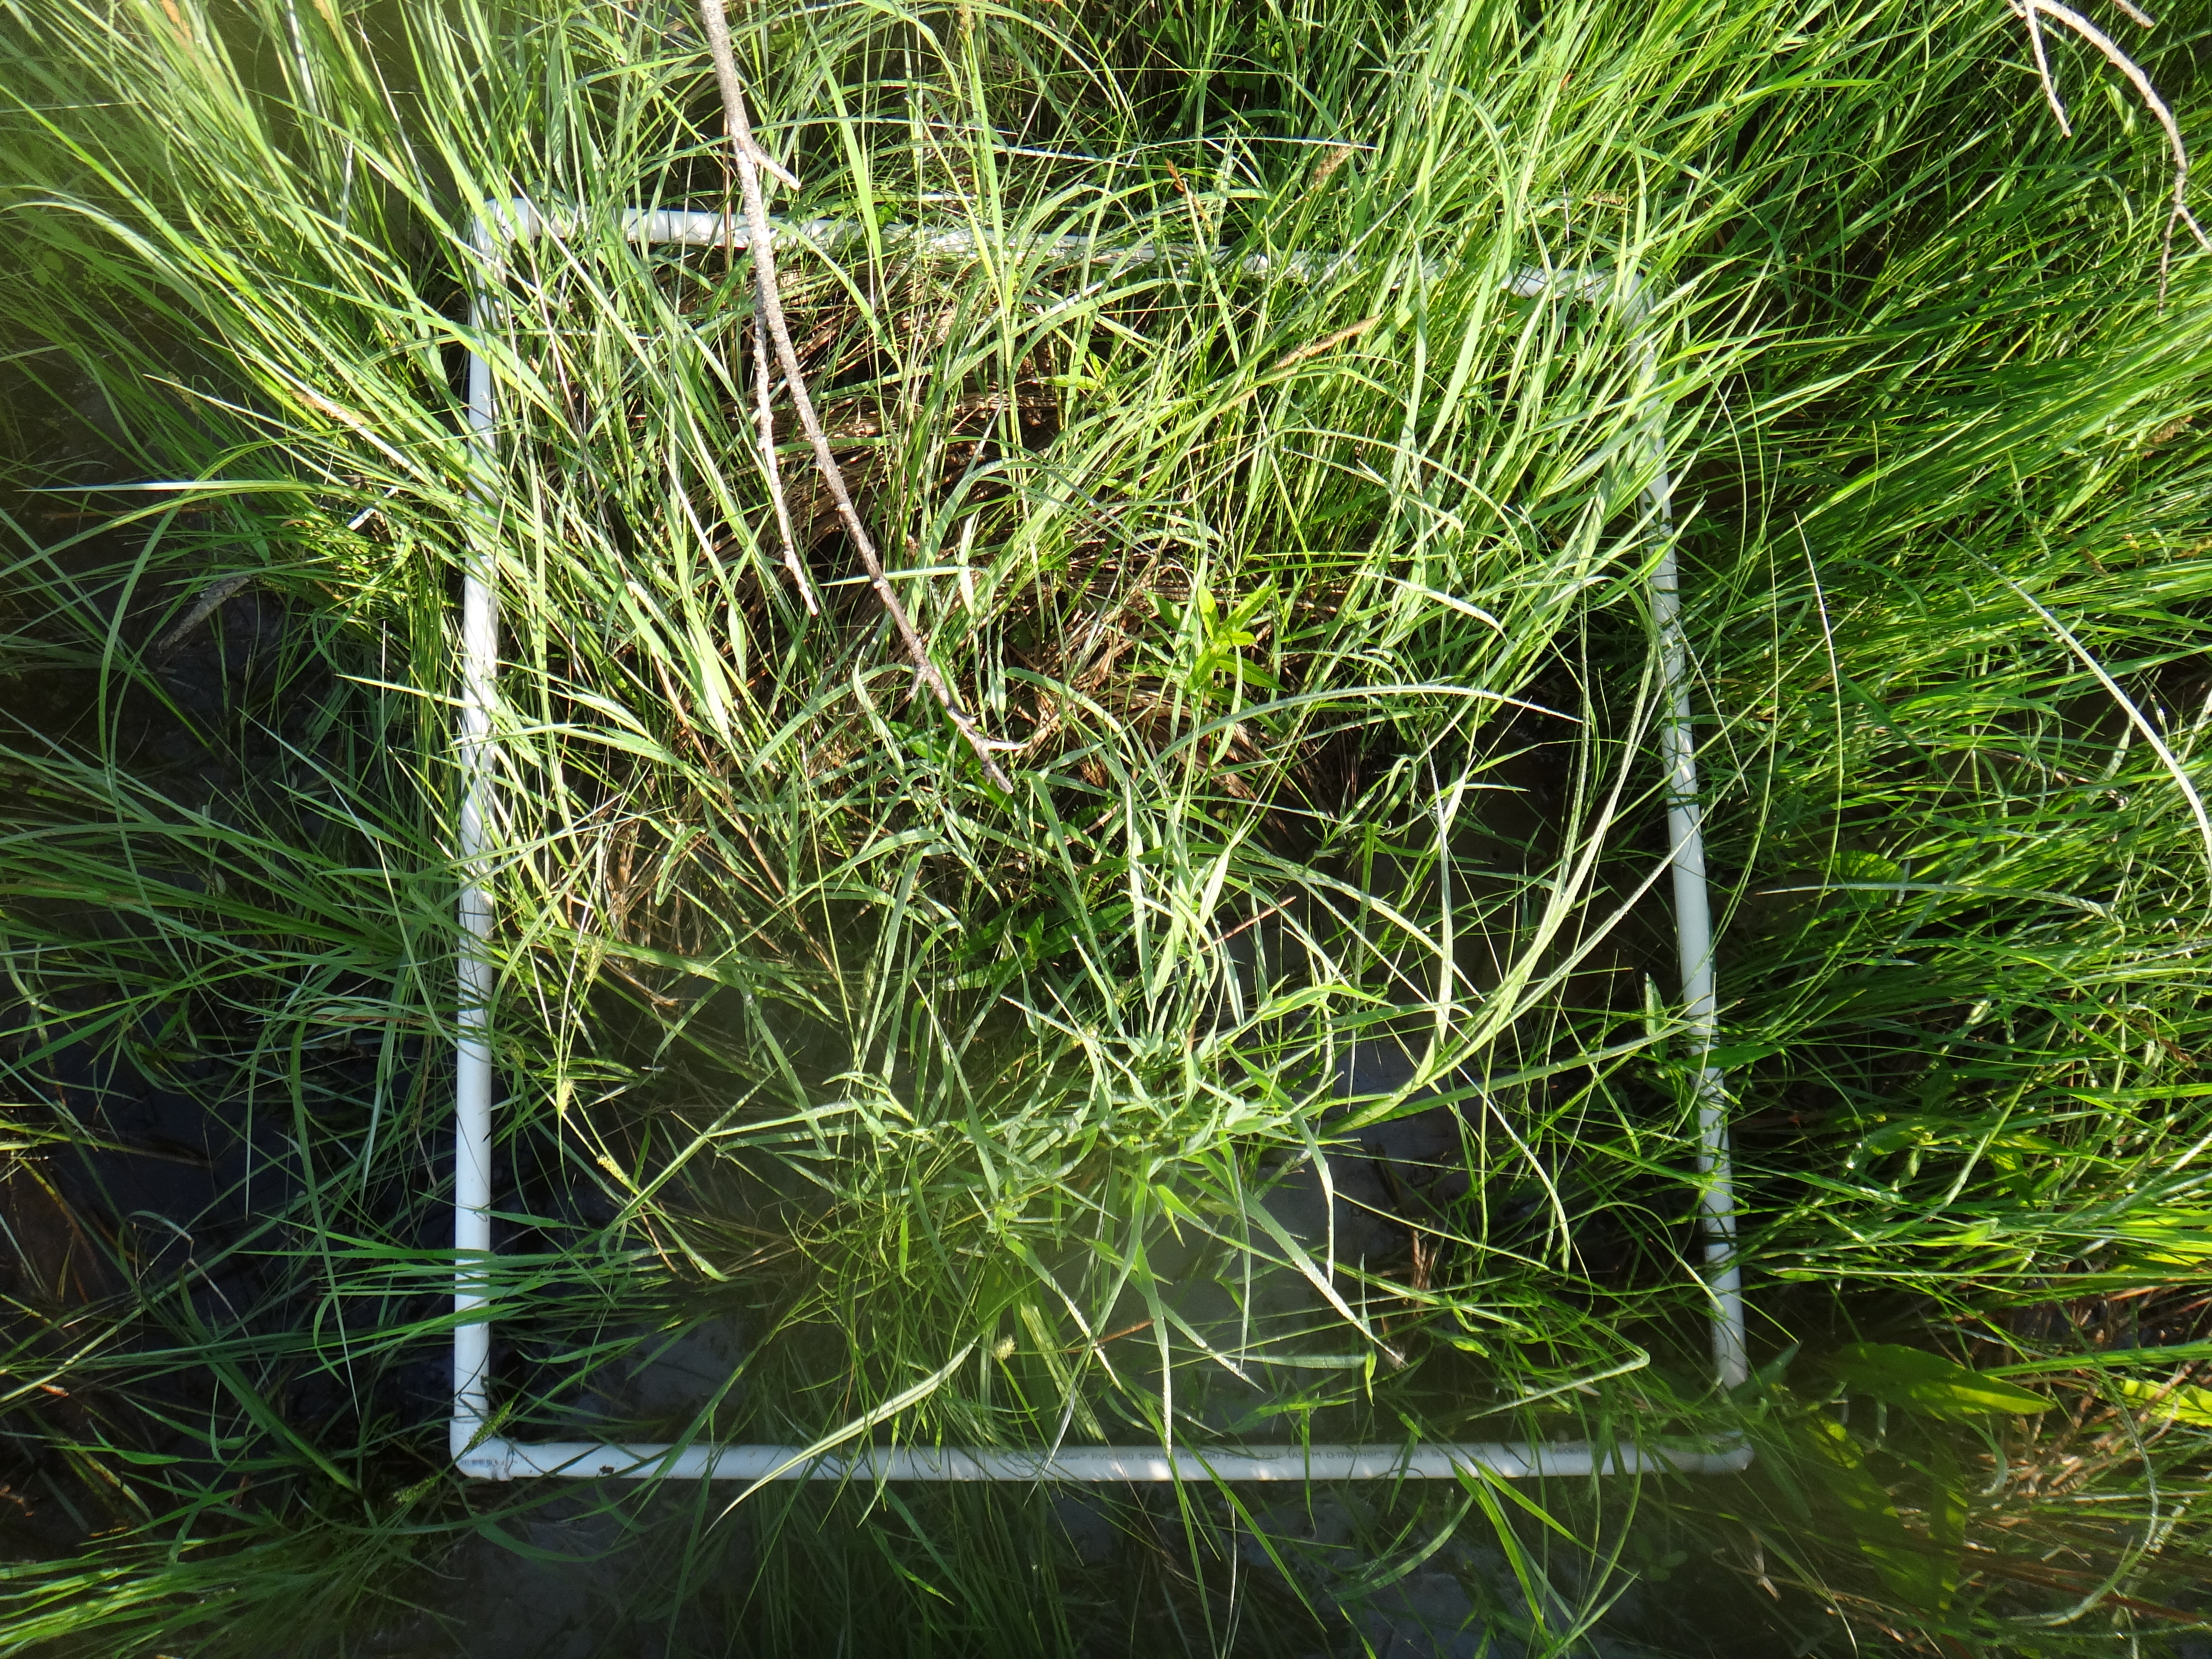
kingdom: Plantae
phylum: Tracheophyta
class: Liliopsida
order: Poales
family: Poaceae
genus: Calamagrostis
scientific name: Calamagrostis canadensis
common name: Canada bluejoint
